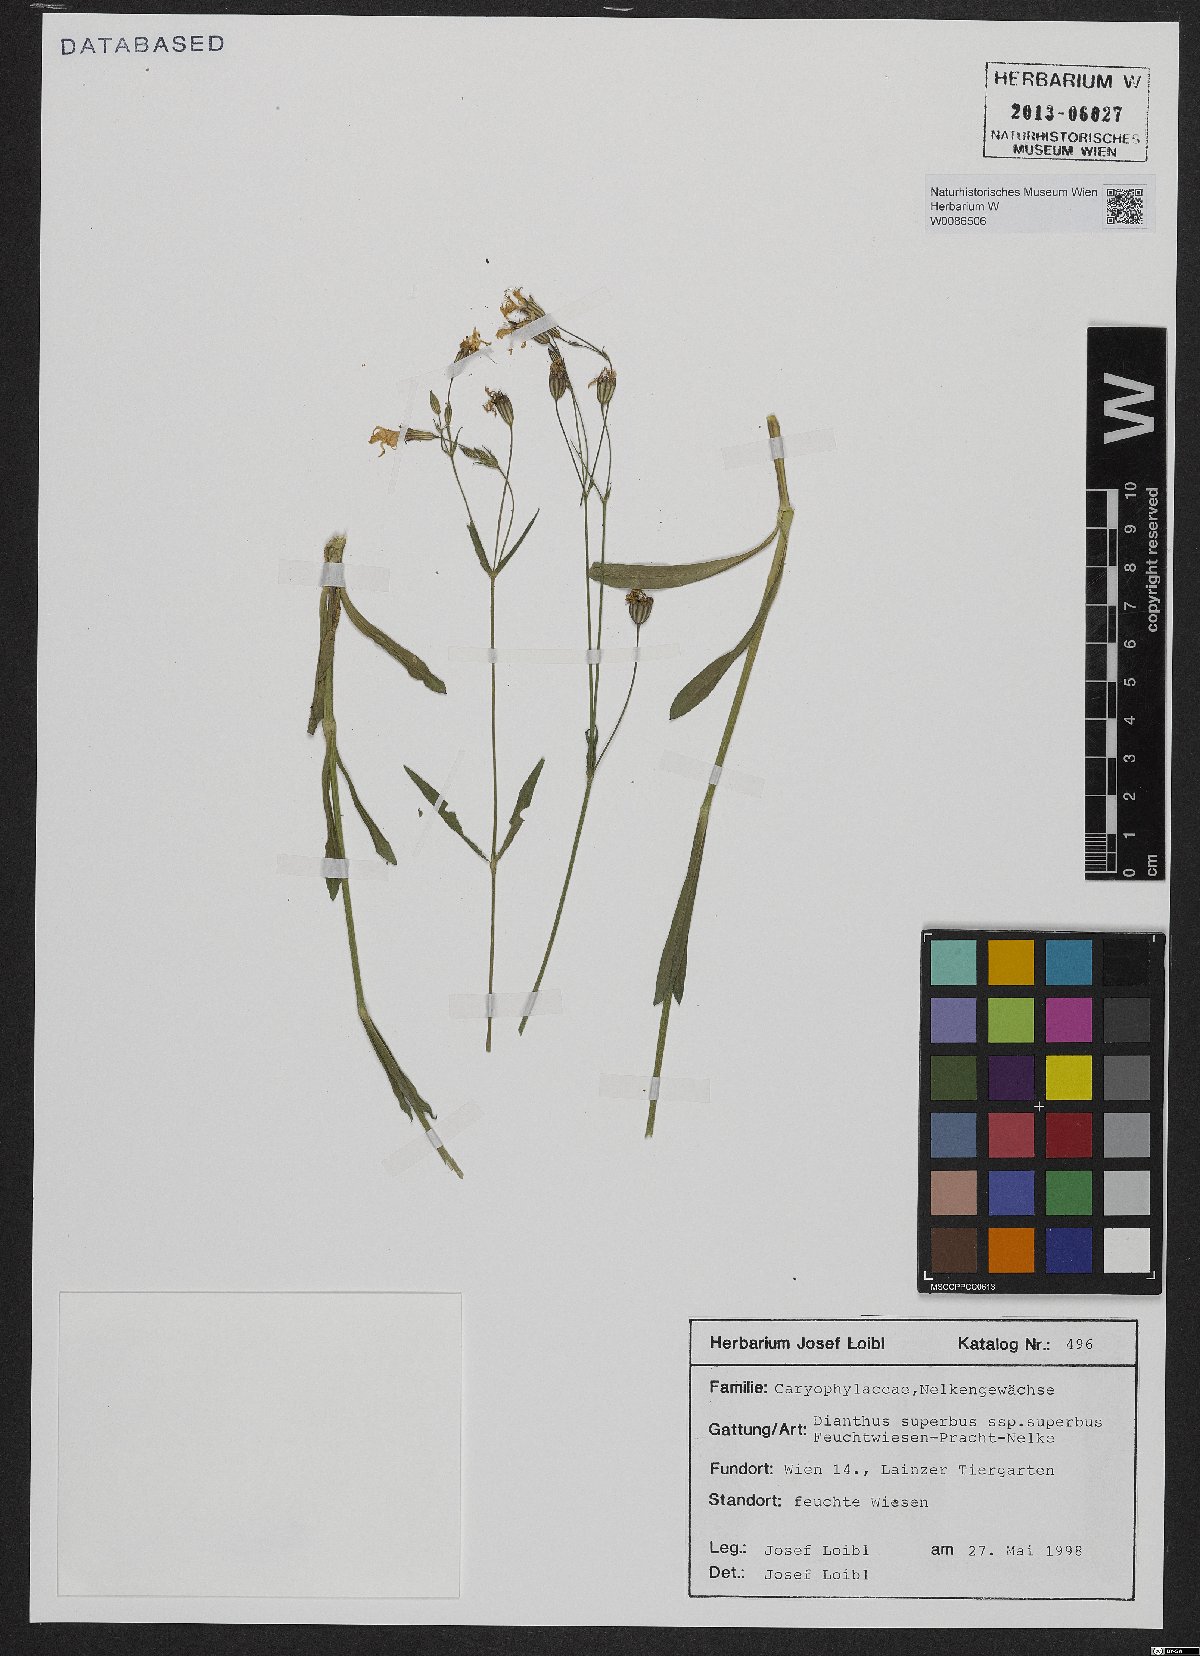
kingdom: Plantae
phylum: Tracheophyta
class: Magnoliopsida
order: Caryophyllales
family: Caryophyllaceae
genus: Dianthus
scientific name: Dianthus superbus
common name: Fringed pink
